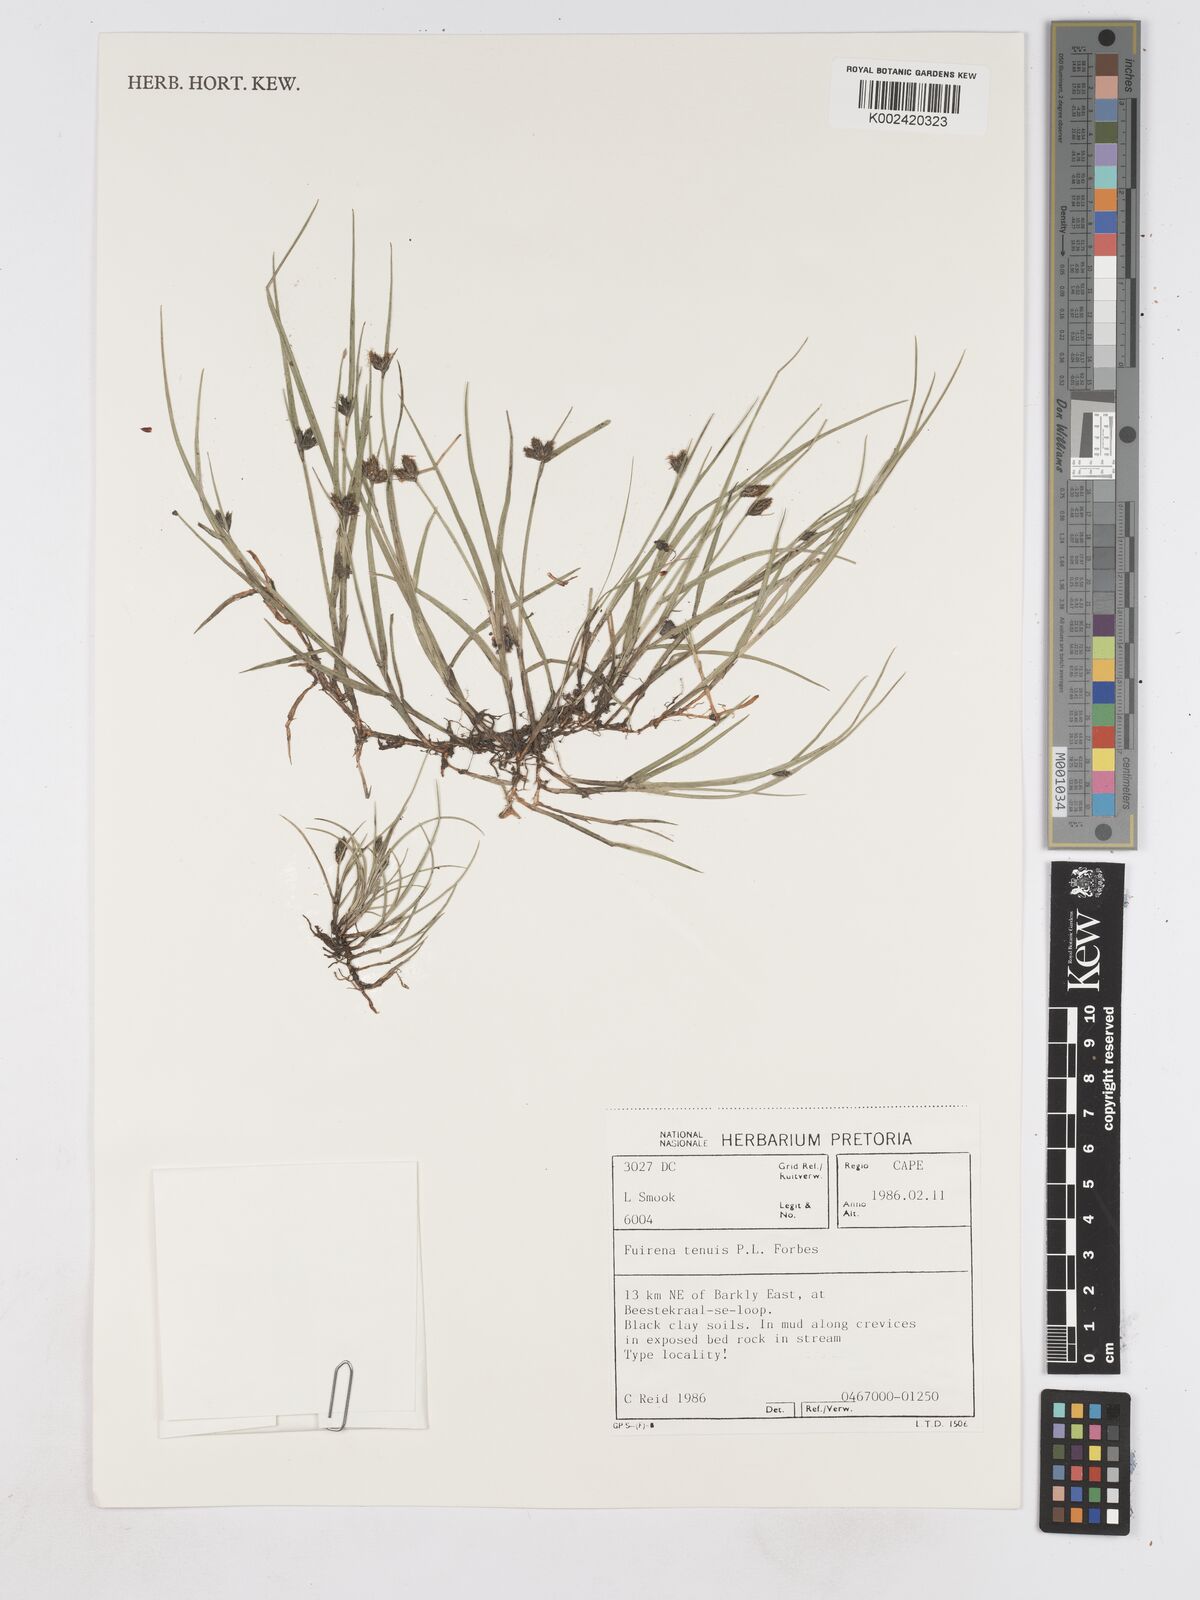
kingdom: Plantae
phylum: Tracheophyta
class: Liliopsida
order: Poales
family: Cyperaceae
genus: Fuirena
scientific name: Fuirena tenuis
